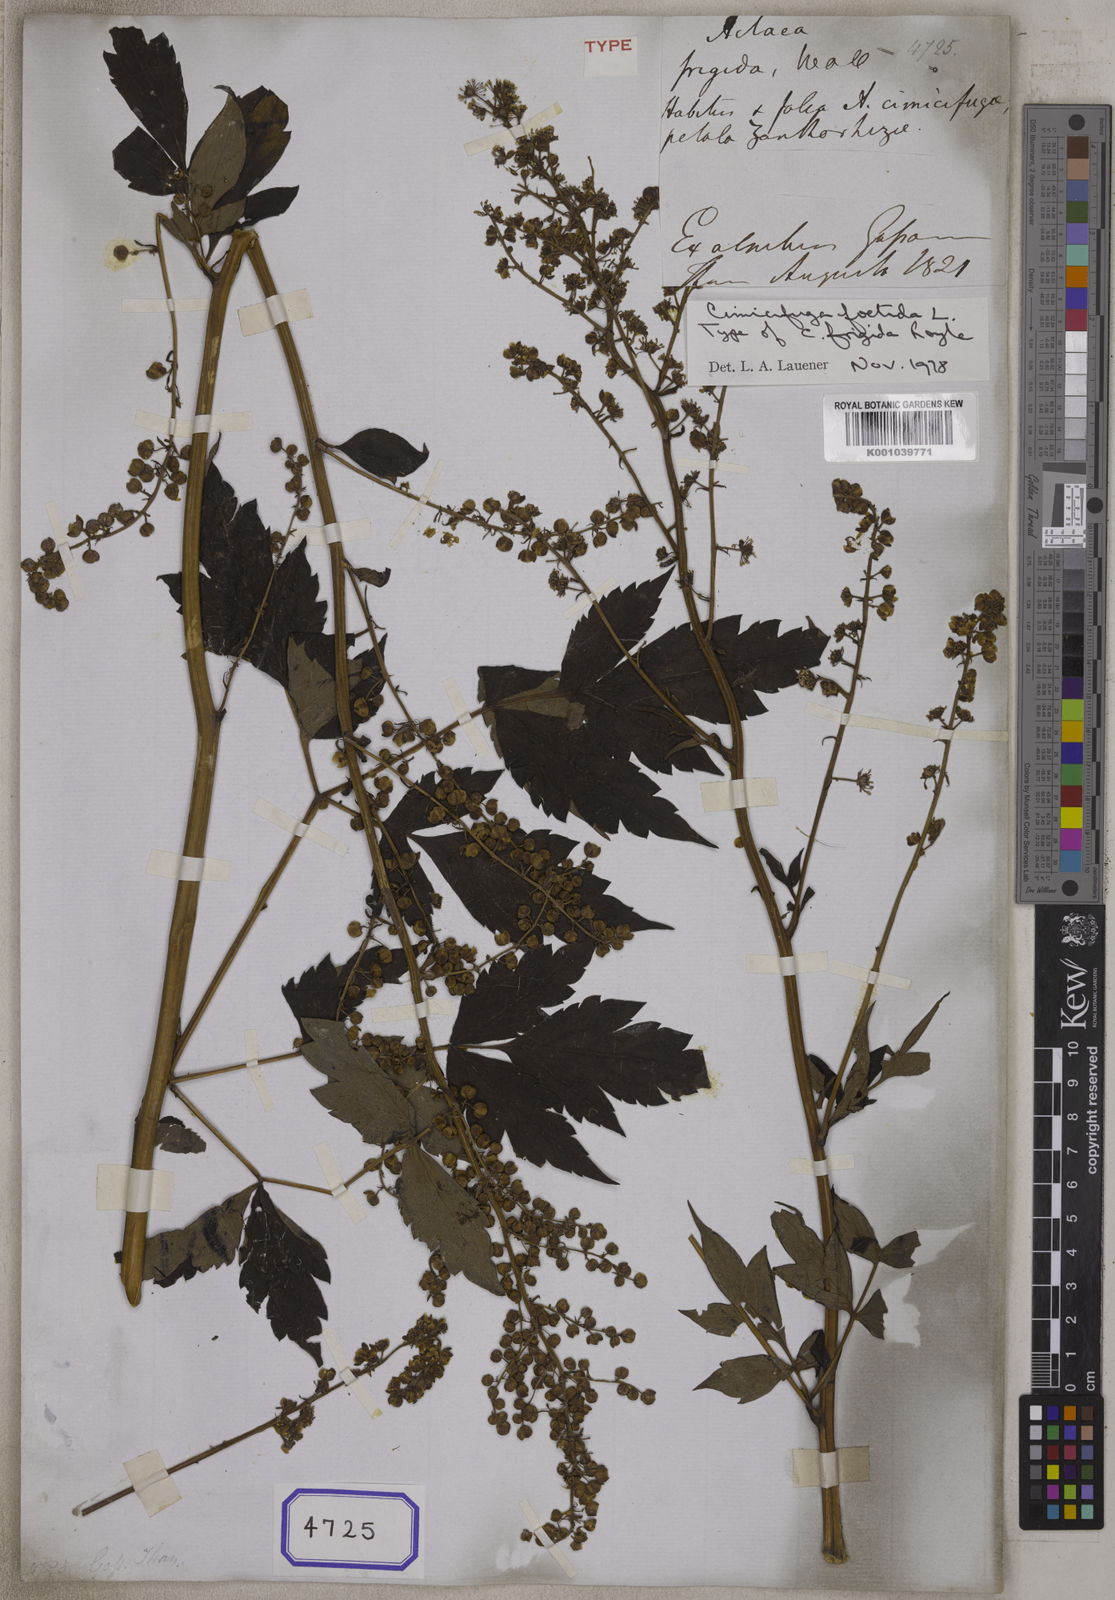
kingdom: Plantae
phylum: Tracheophyta
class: Magnoliopsida
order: Ranunculales
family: Ranunculaceae
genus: Actaea
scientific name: Actaea
